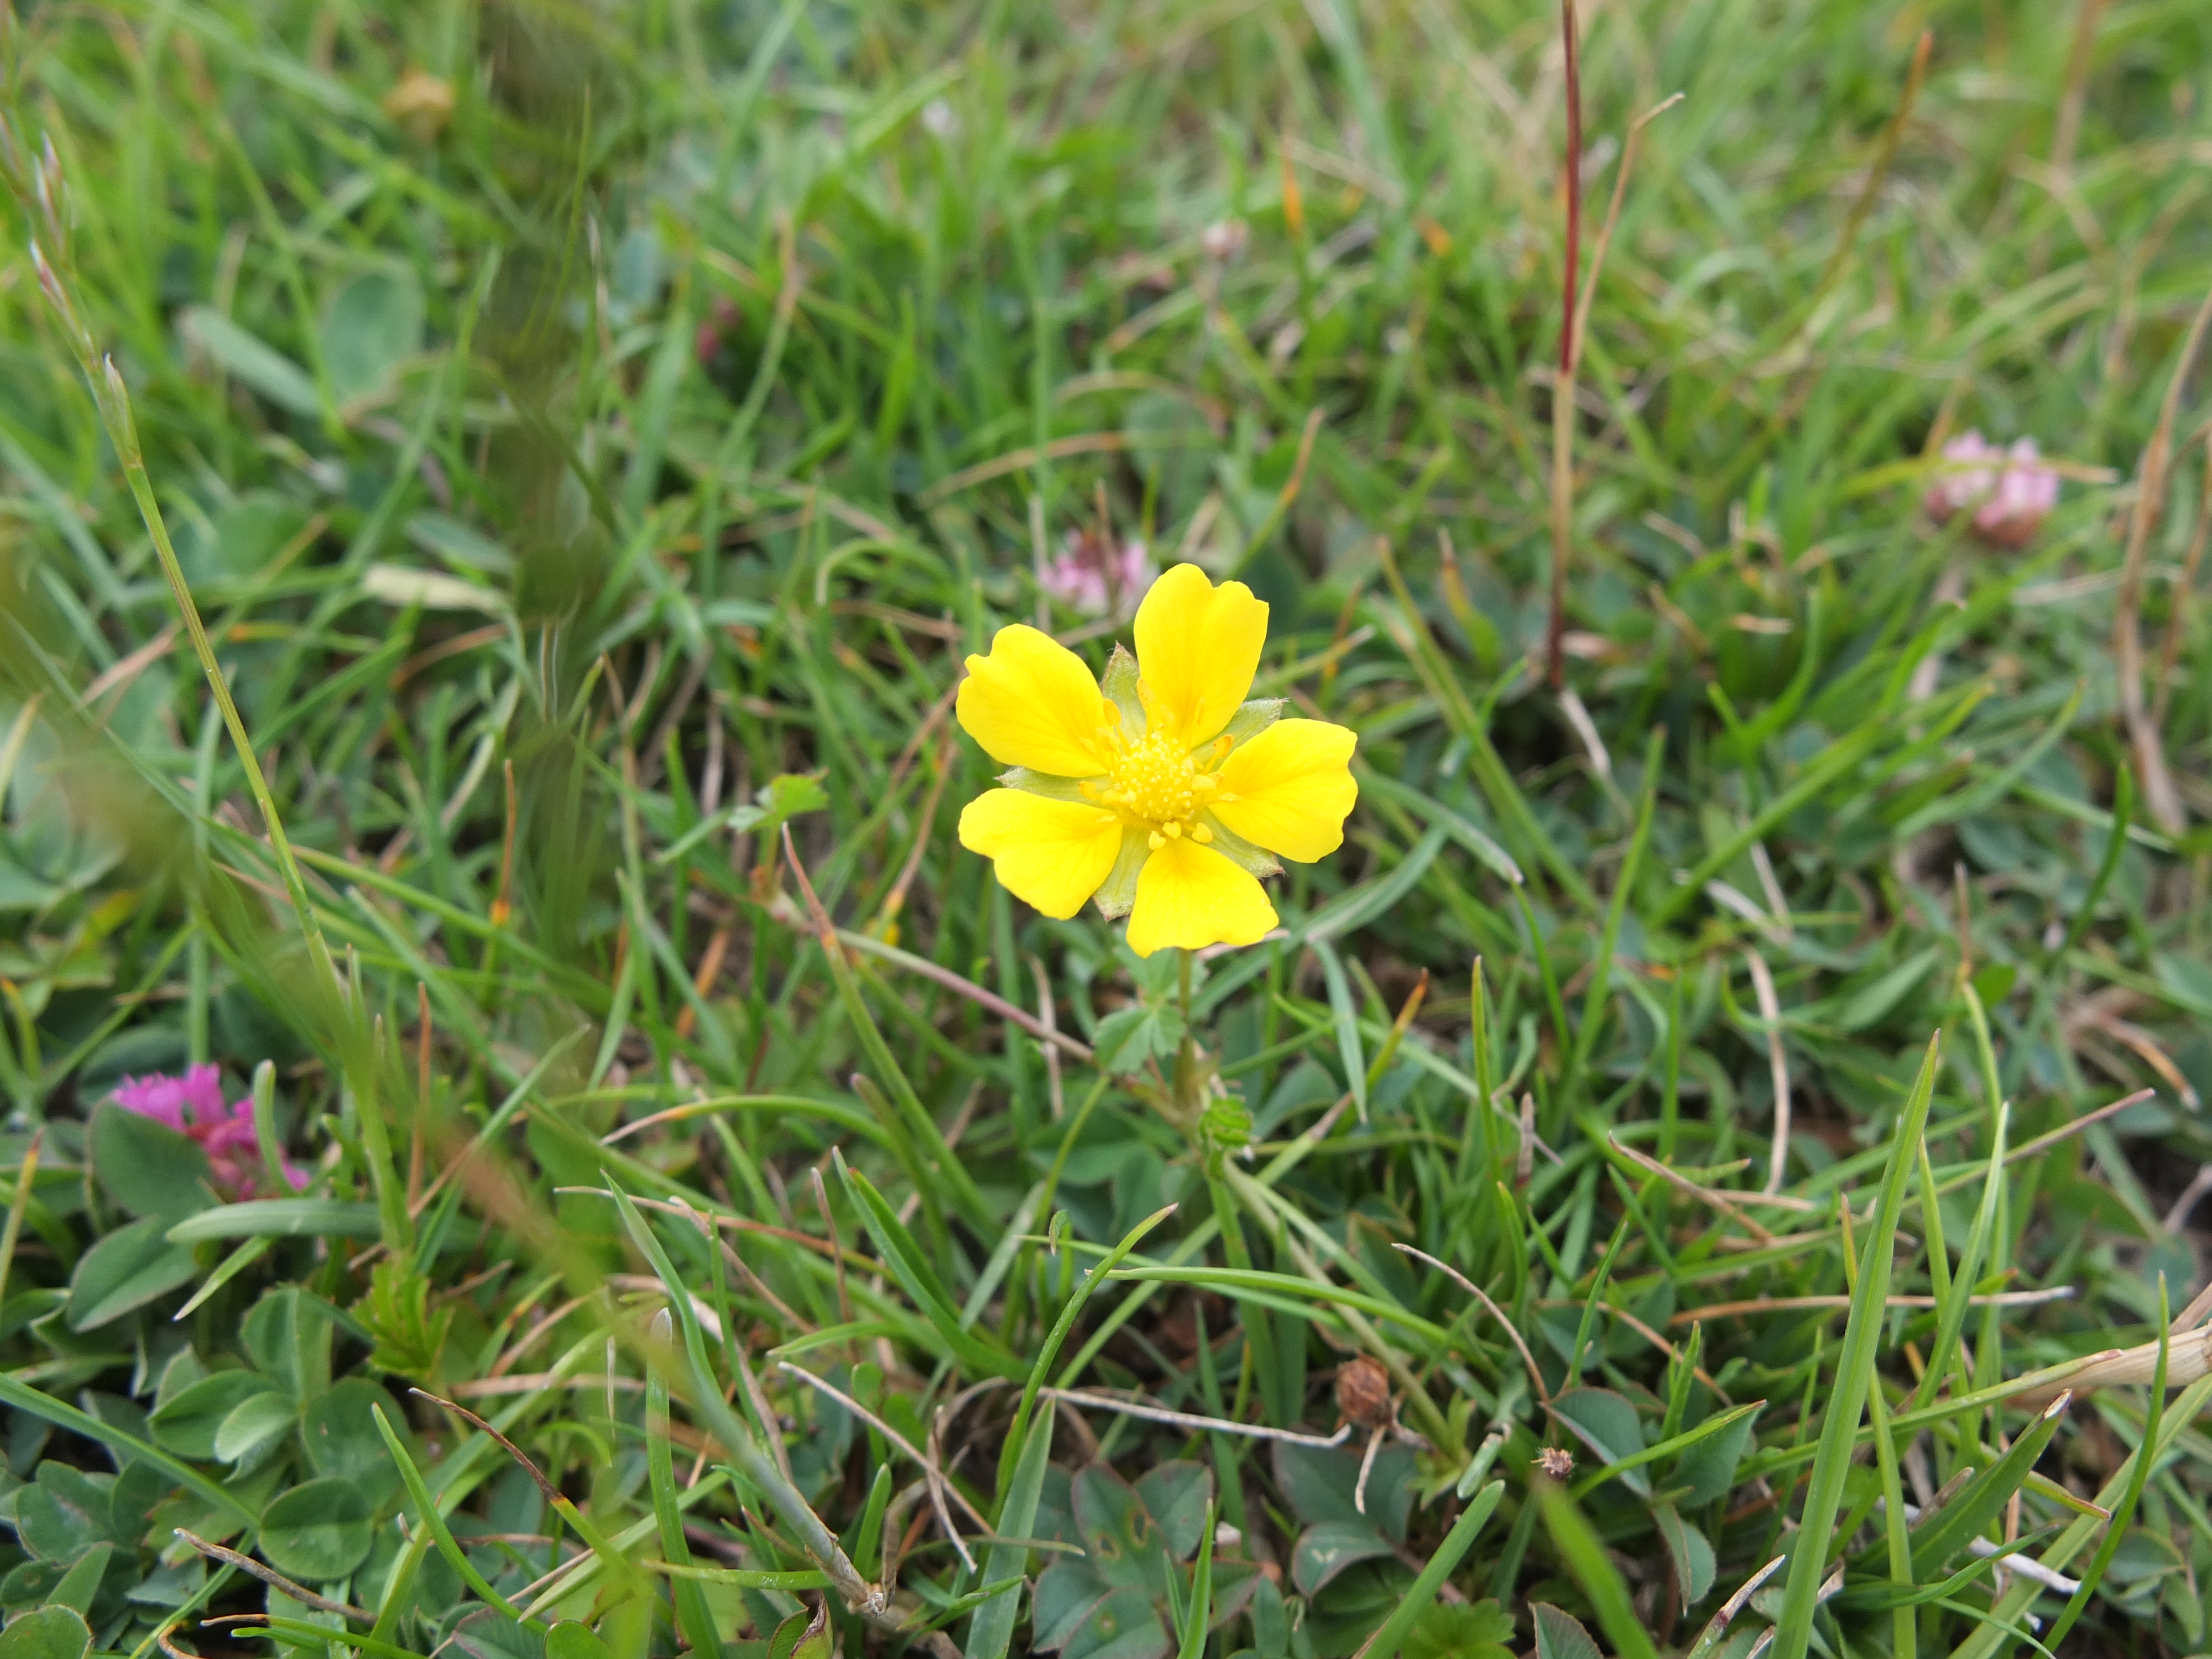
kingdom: Plantae
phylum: Tracheophyta
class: Magnoliopsida
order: Rosales
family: Rosaceae
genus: Potentilla
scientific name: Potentilla reptans
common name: Krybende potentil
